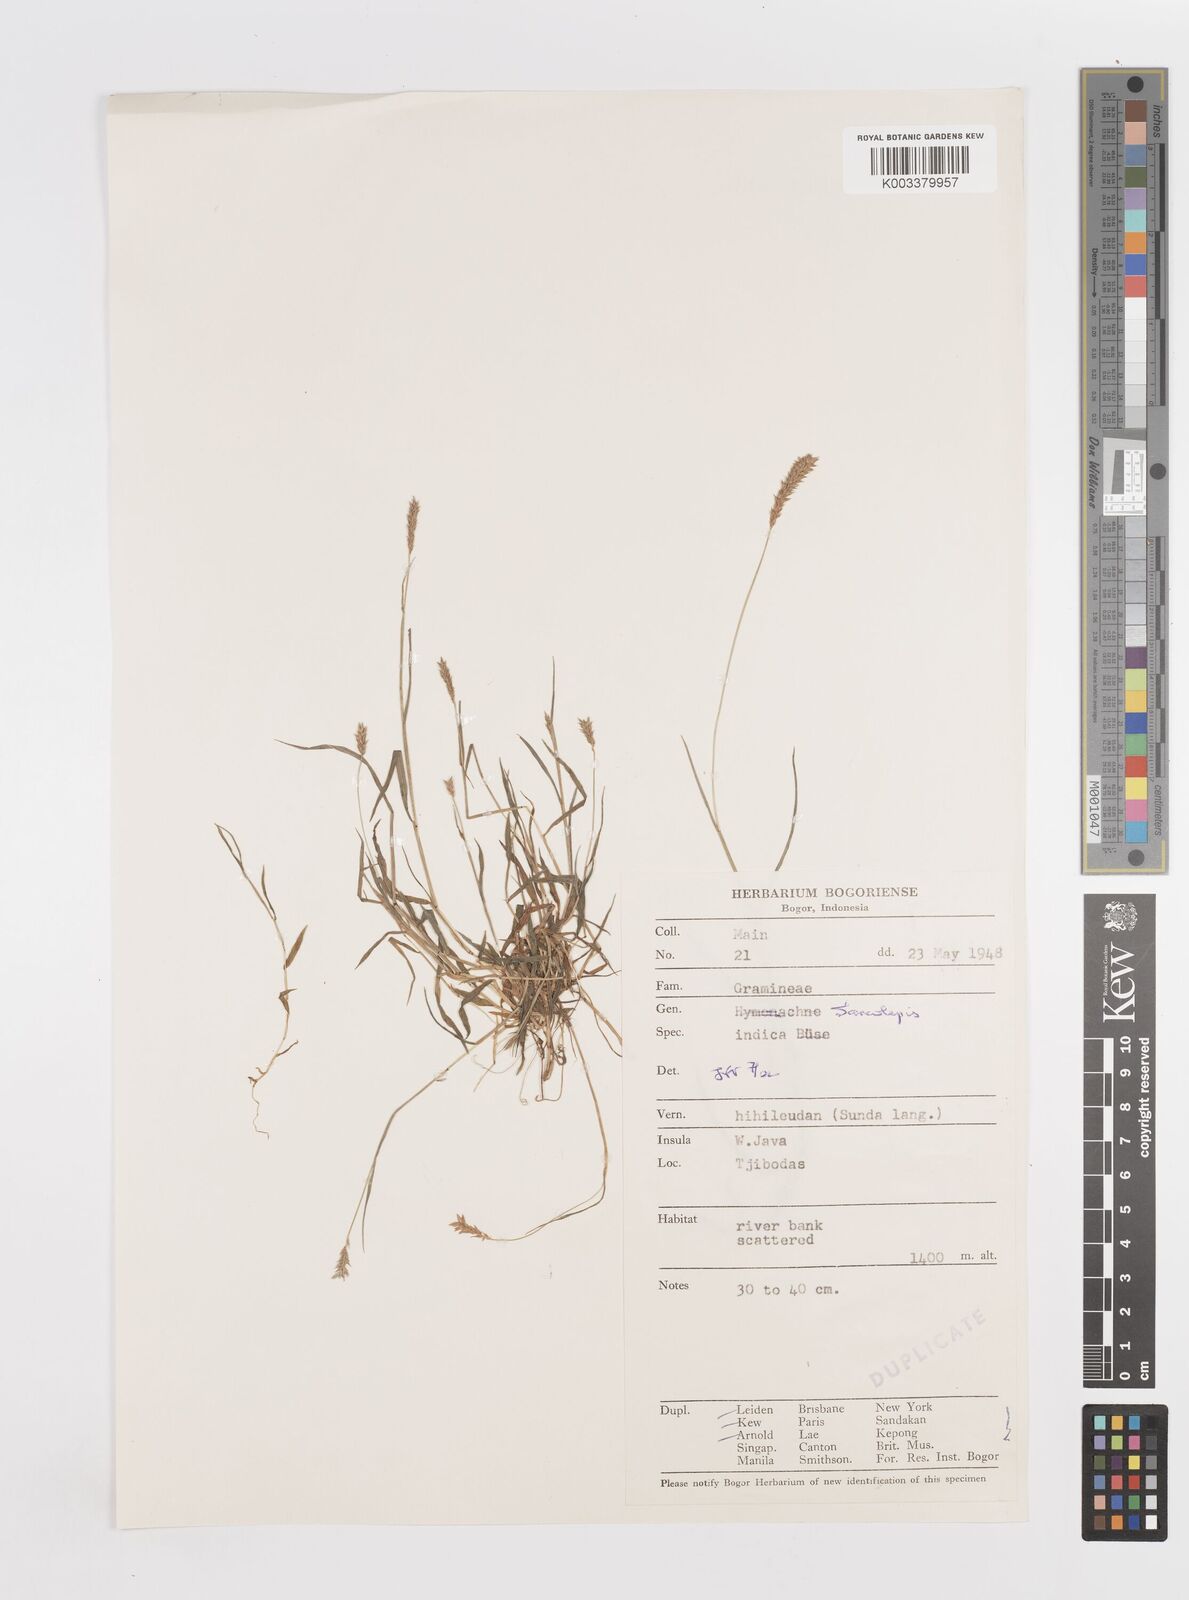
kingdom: Plantae
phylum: Tracheophyta
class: Liliopsida
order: Poales
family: Poaceae
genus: Sacciolepis
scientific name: Sacciolepis indica
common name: Glenwoodgrass
